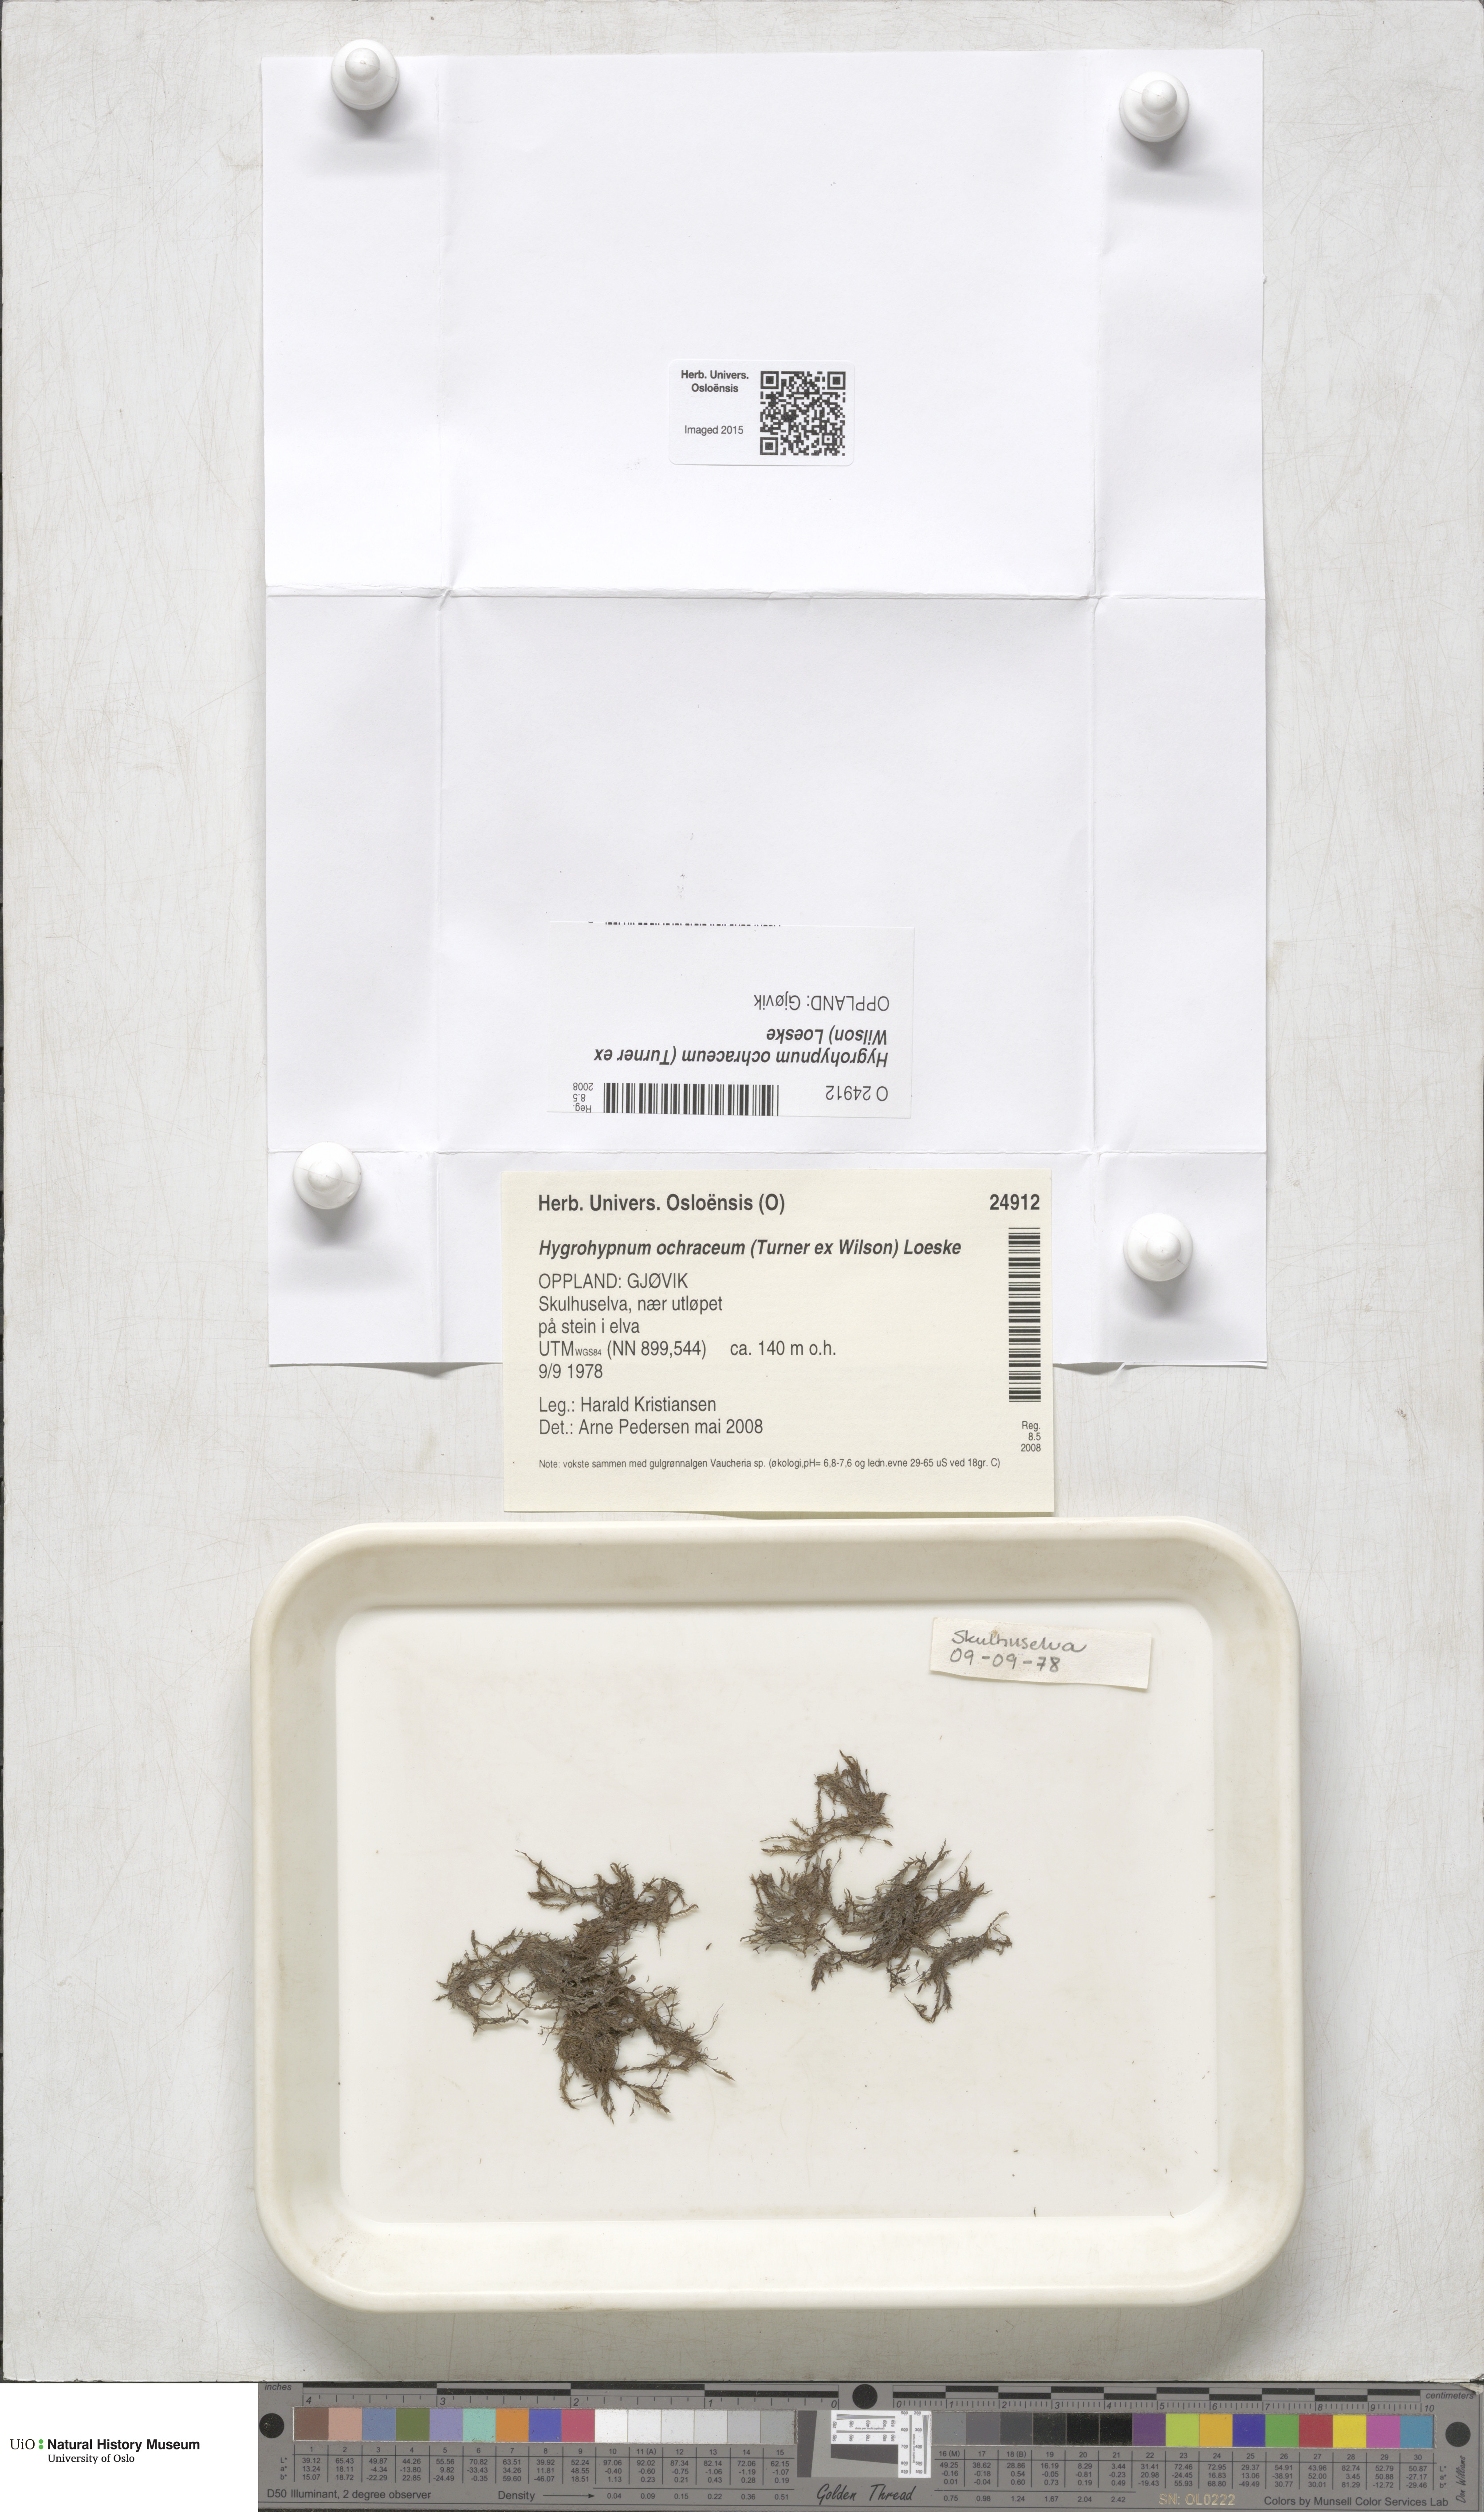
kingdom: Plantae
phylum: Bryophyta
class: Bryopsida
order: Hypnales
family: Scorpidiaceae
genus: Hygrohypnella
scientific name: Hygrohypnella ochracea
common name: Hygrohypnum moss
